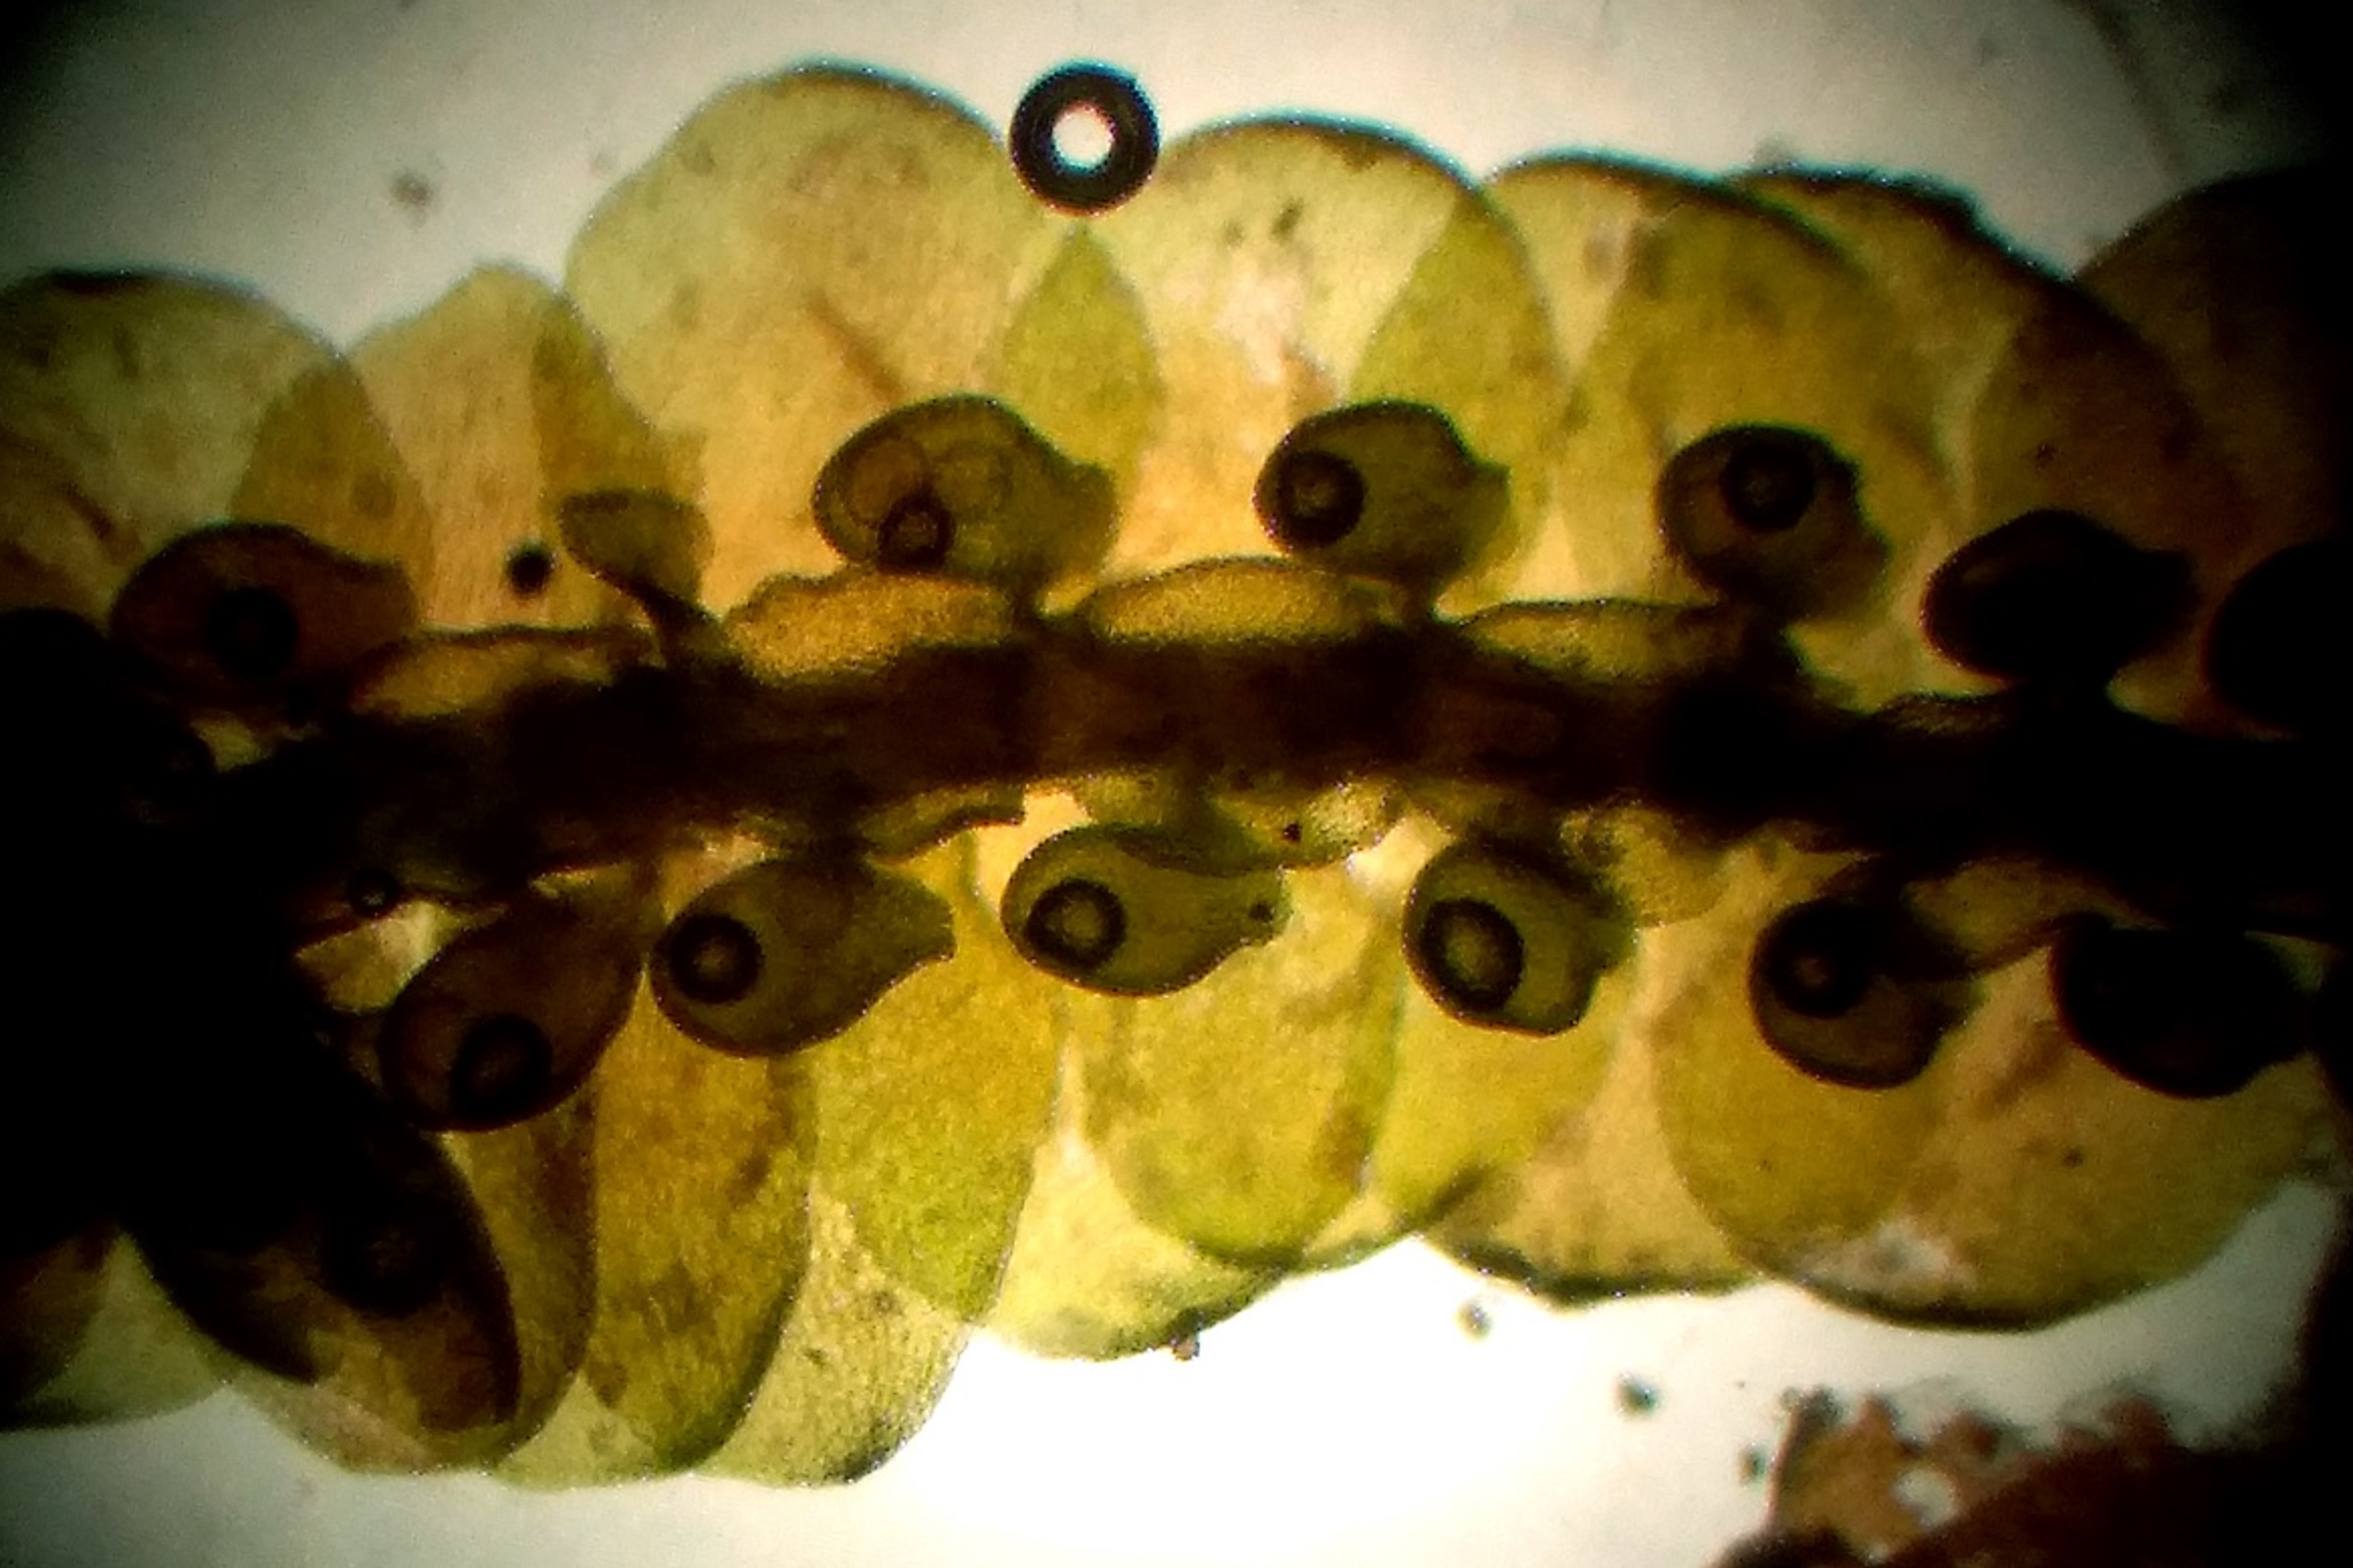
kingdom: Plantae
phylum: Marchantiophyta
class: Jungermanniopsida
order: Porellales
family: Frullaniaceae
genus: Frullania
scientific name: Frullania tamarisci
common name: Glinsende bronzemos
